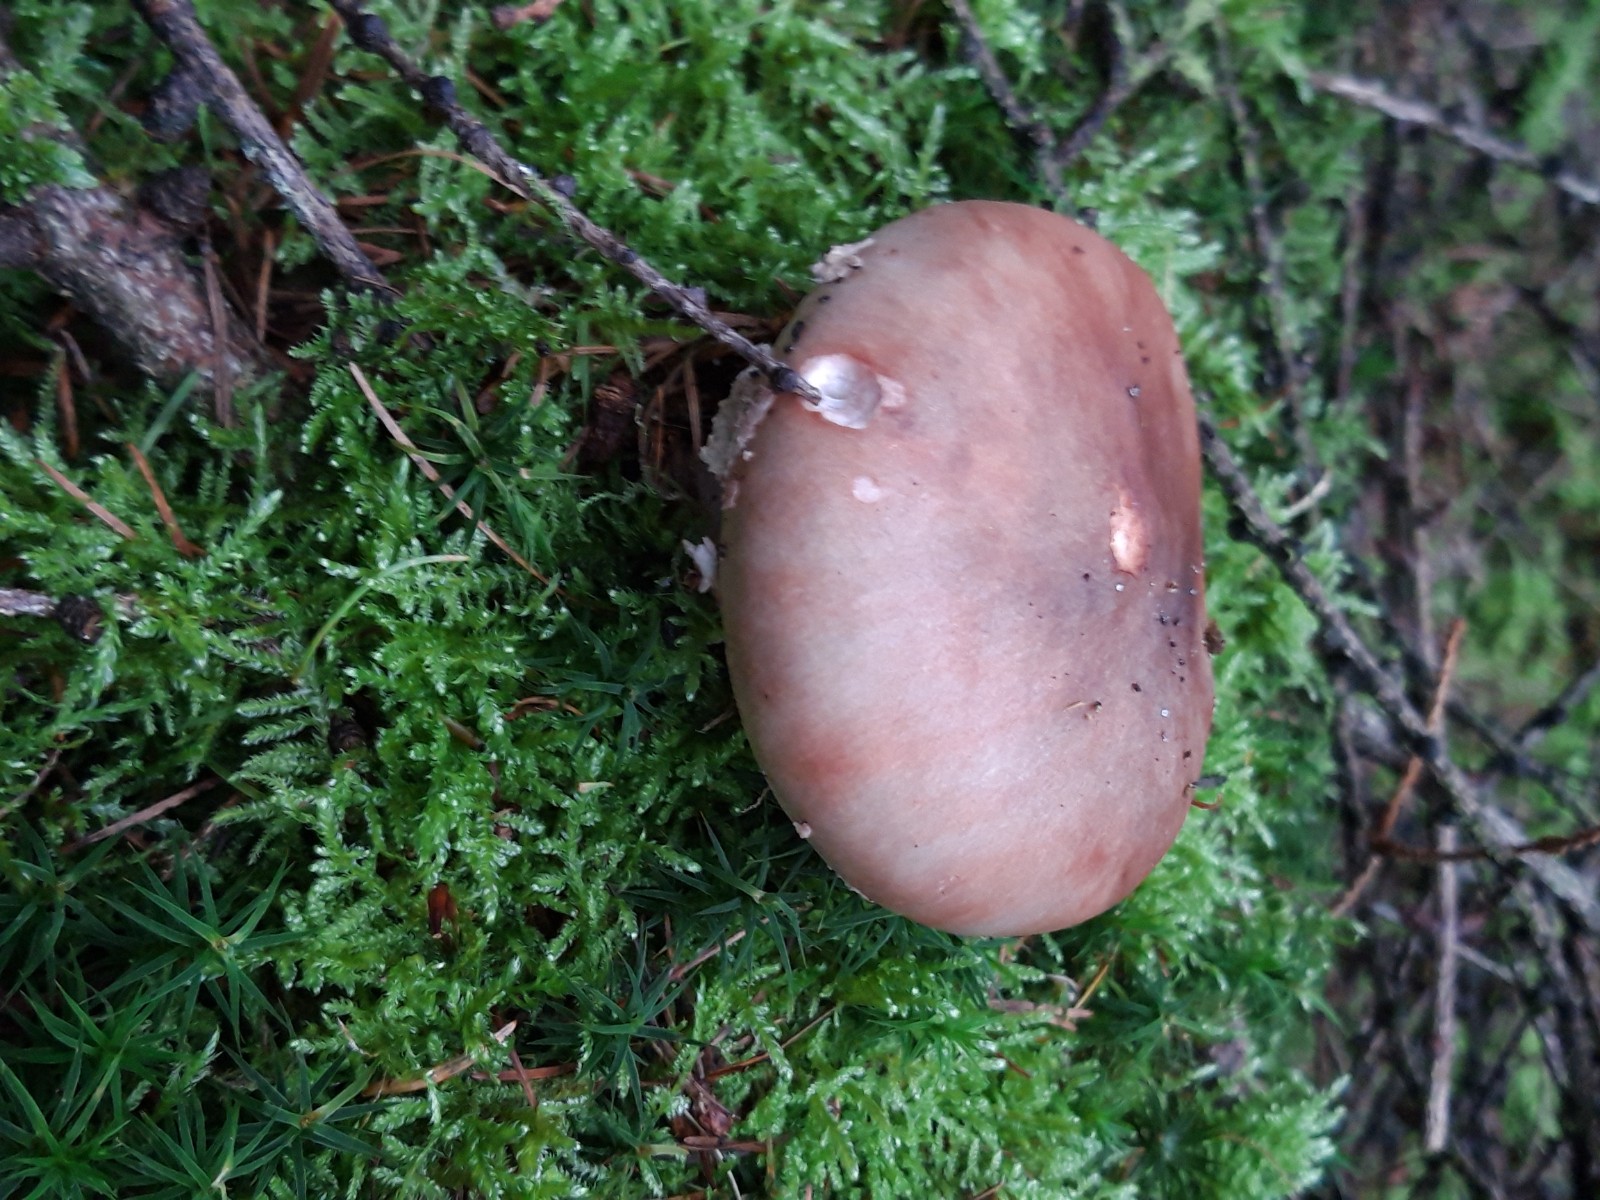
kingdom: Fungi
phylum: Basidiomycota
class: Agaricomycetes
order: Agaricales
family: Amanitaceae
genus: Amanita
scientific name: Amanita rubescens
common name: rødmende fluesvamp
